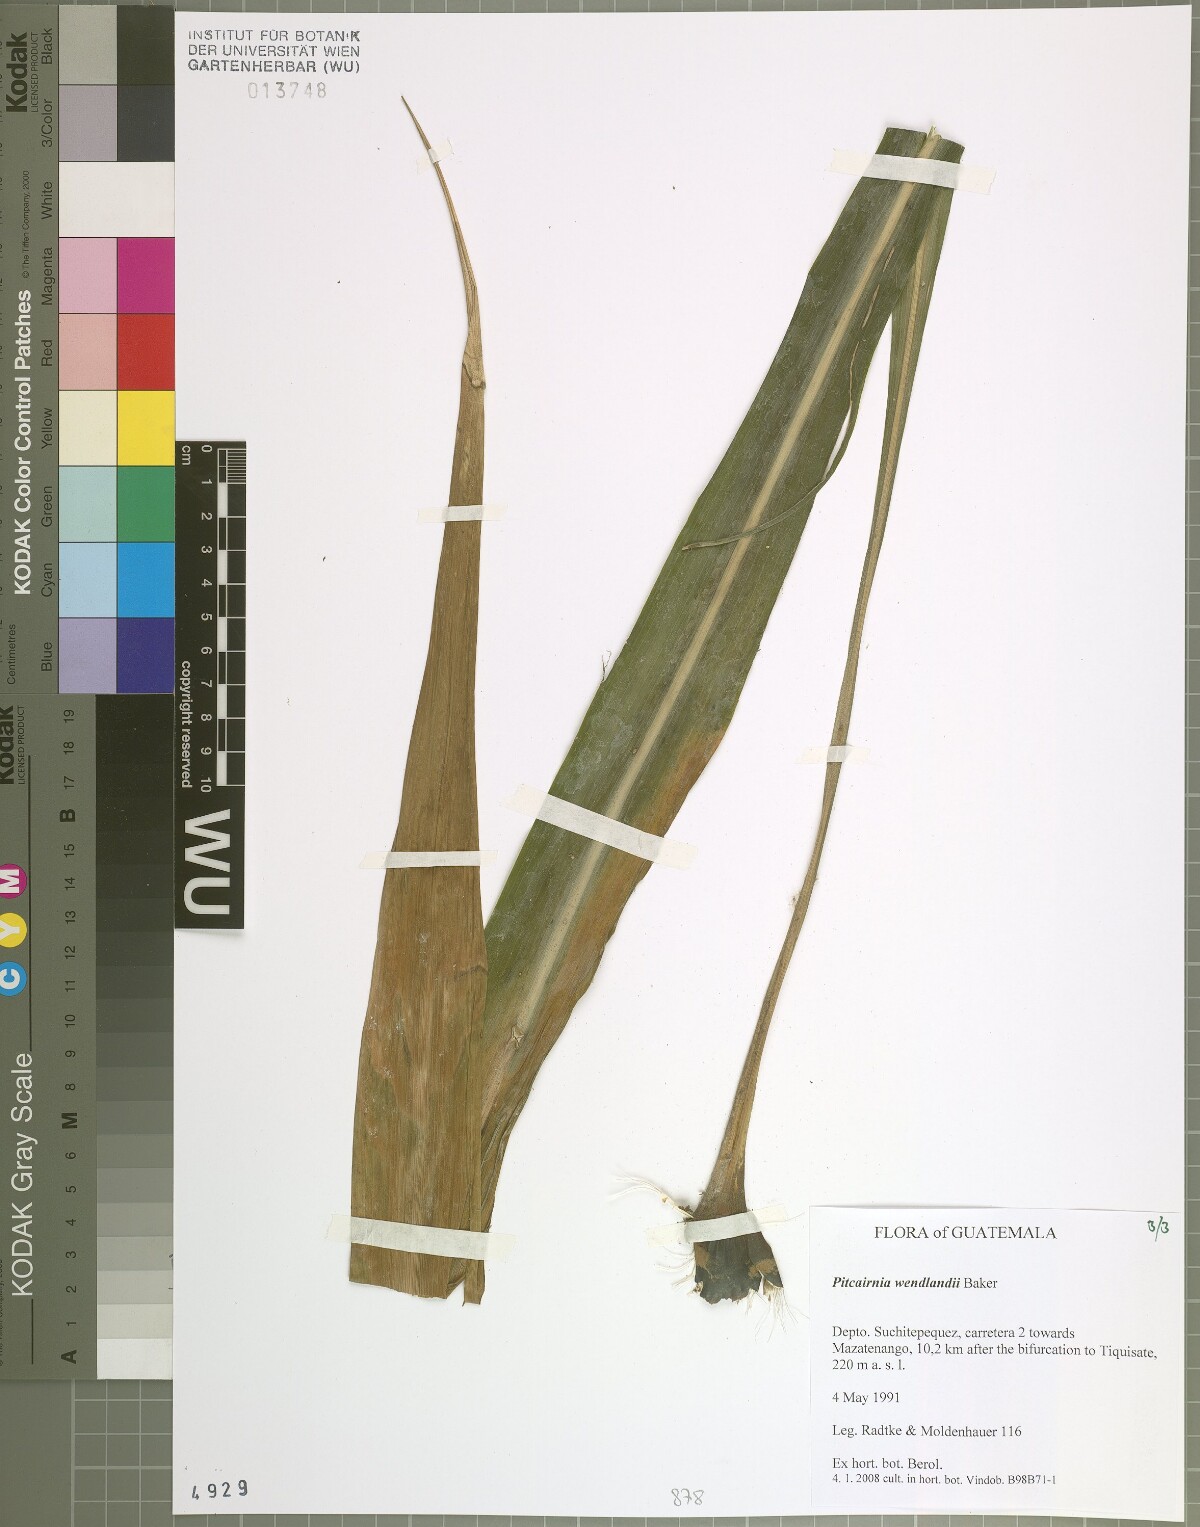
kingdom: Plantae
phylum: Tracheophyta
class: Liliopsida
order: Poales
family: Bromeliaceae
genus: Pitcairnia
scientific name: Pitcairnia wendlandii
